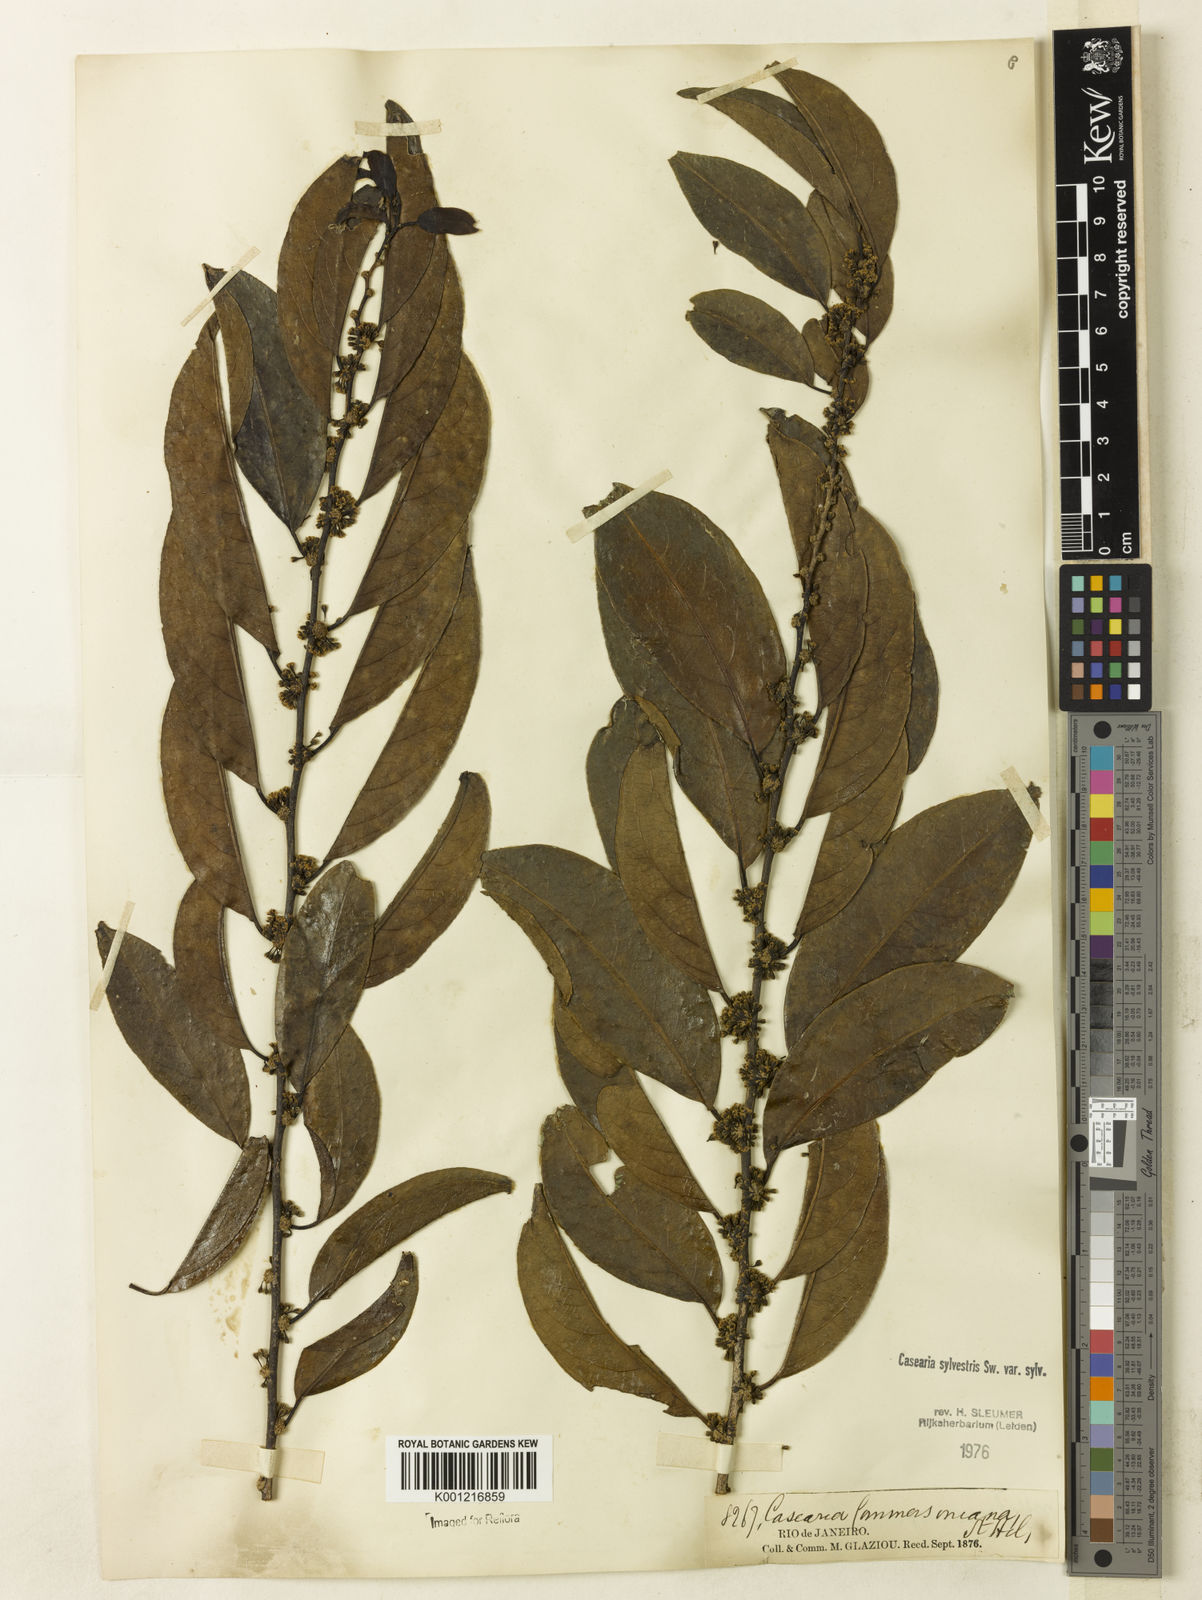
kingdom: Plantae
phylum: Tracheophyta
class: Magnoliopsida
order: Malpighiales
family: Salicaceae
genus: Casearia
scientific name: Casearia sylvestris
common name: Wild sage
